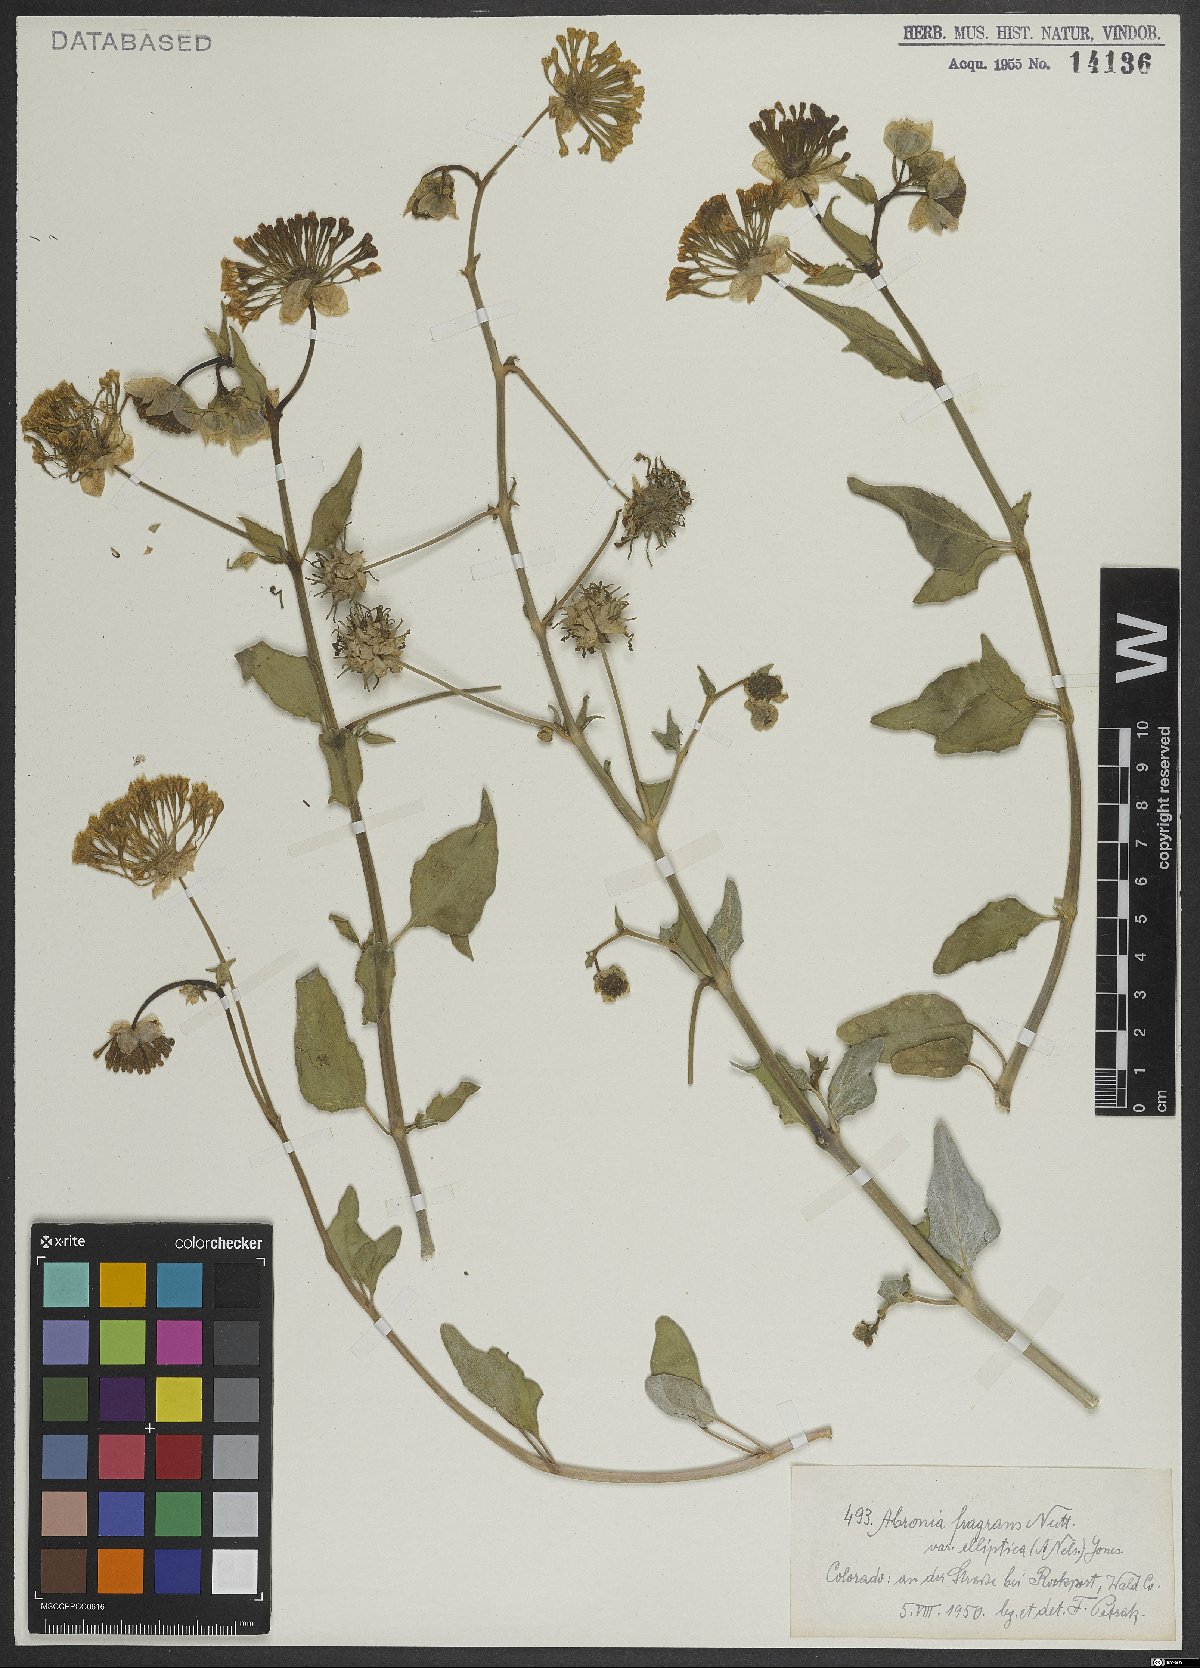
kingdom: Plantae
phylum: Tracheophyta
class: Magnoliopsida
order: Caryophyllales
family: Nyctaginaceae
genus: Abronia
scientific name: Abronia fragrans
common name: Fragrant sand-verbena
